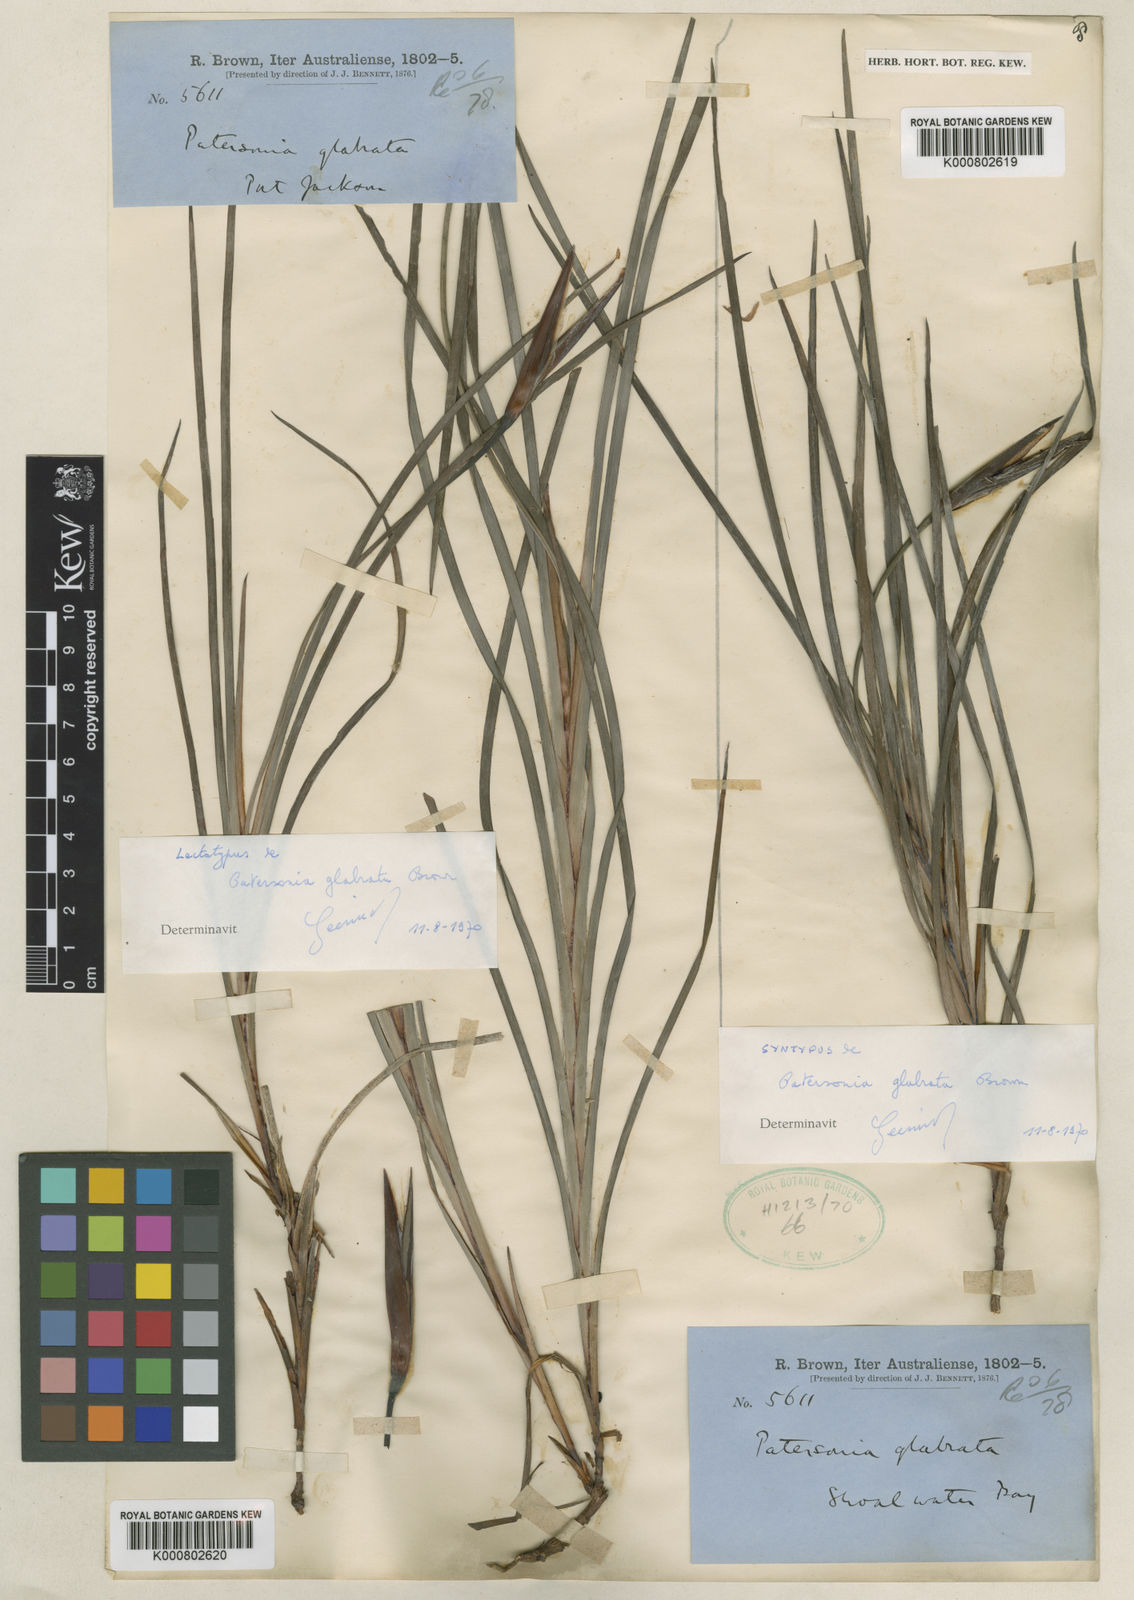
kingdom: Plantae
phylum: Tracheophyta
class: Liliopsida
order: Asparagales
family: Iridaceae
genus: Patersonia
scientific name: Patersonia glabrata
